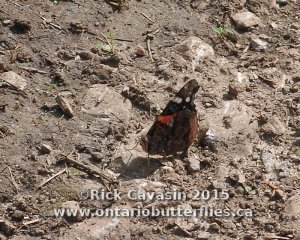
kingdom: Animalia
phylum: Arthropoda
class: Insecta
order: Lepidoptera
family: Nymphalidae
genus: Vanessa
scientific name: Vanessa atalanta
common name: Red Admiral
